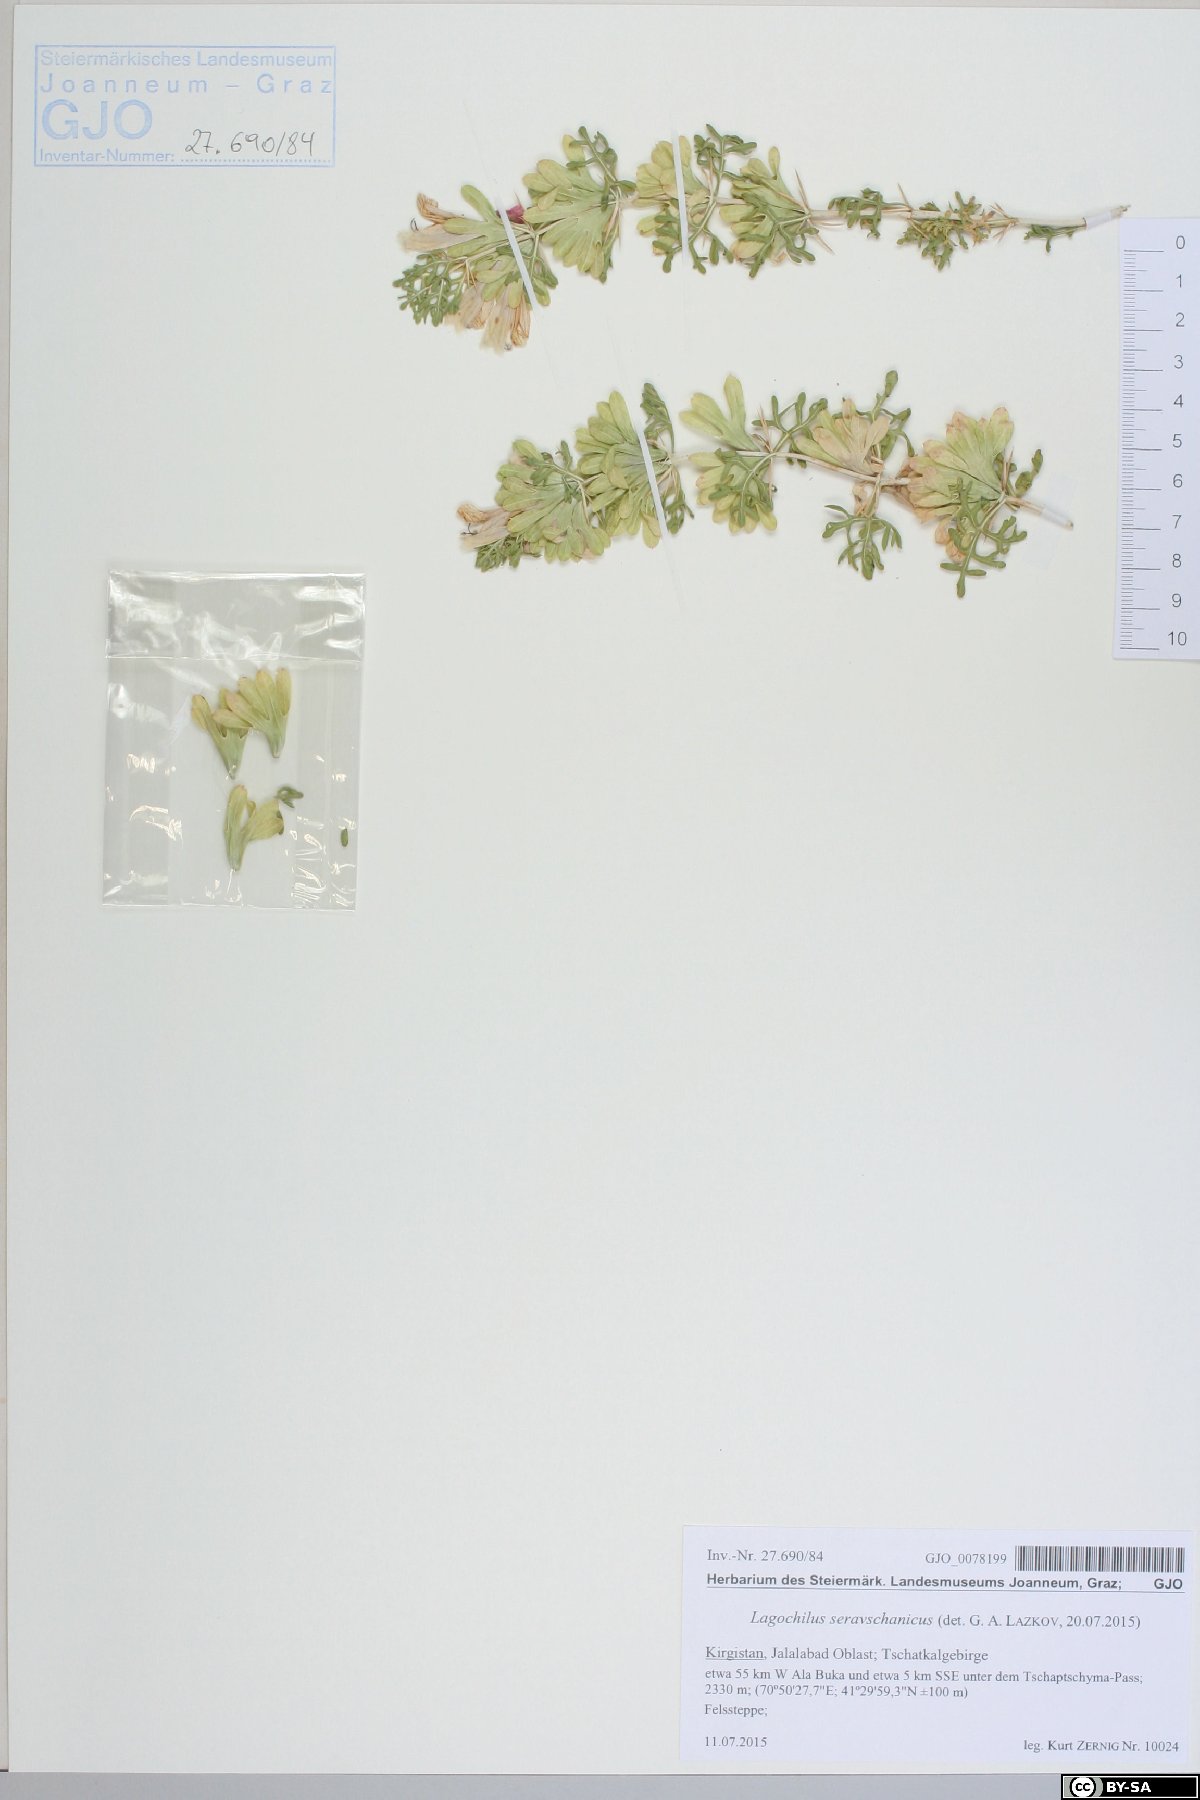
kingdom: Plantae
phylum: Tracheophyta
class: Magnoliopsida
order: Lamiales
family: Lamiaceae
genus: Lagochilus
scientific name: Lagochilus seravschanicus
